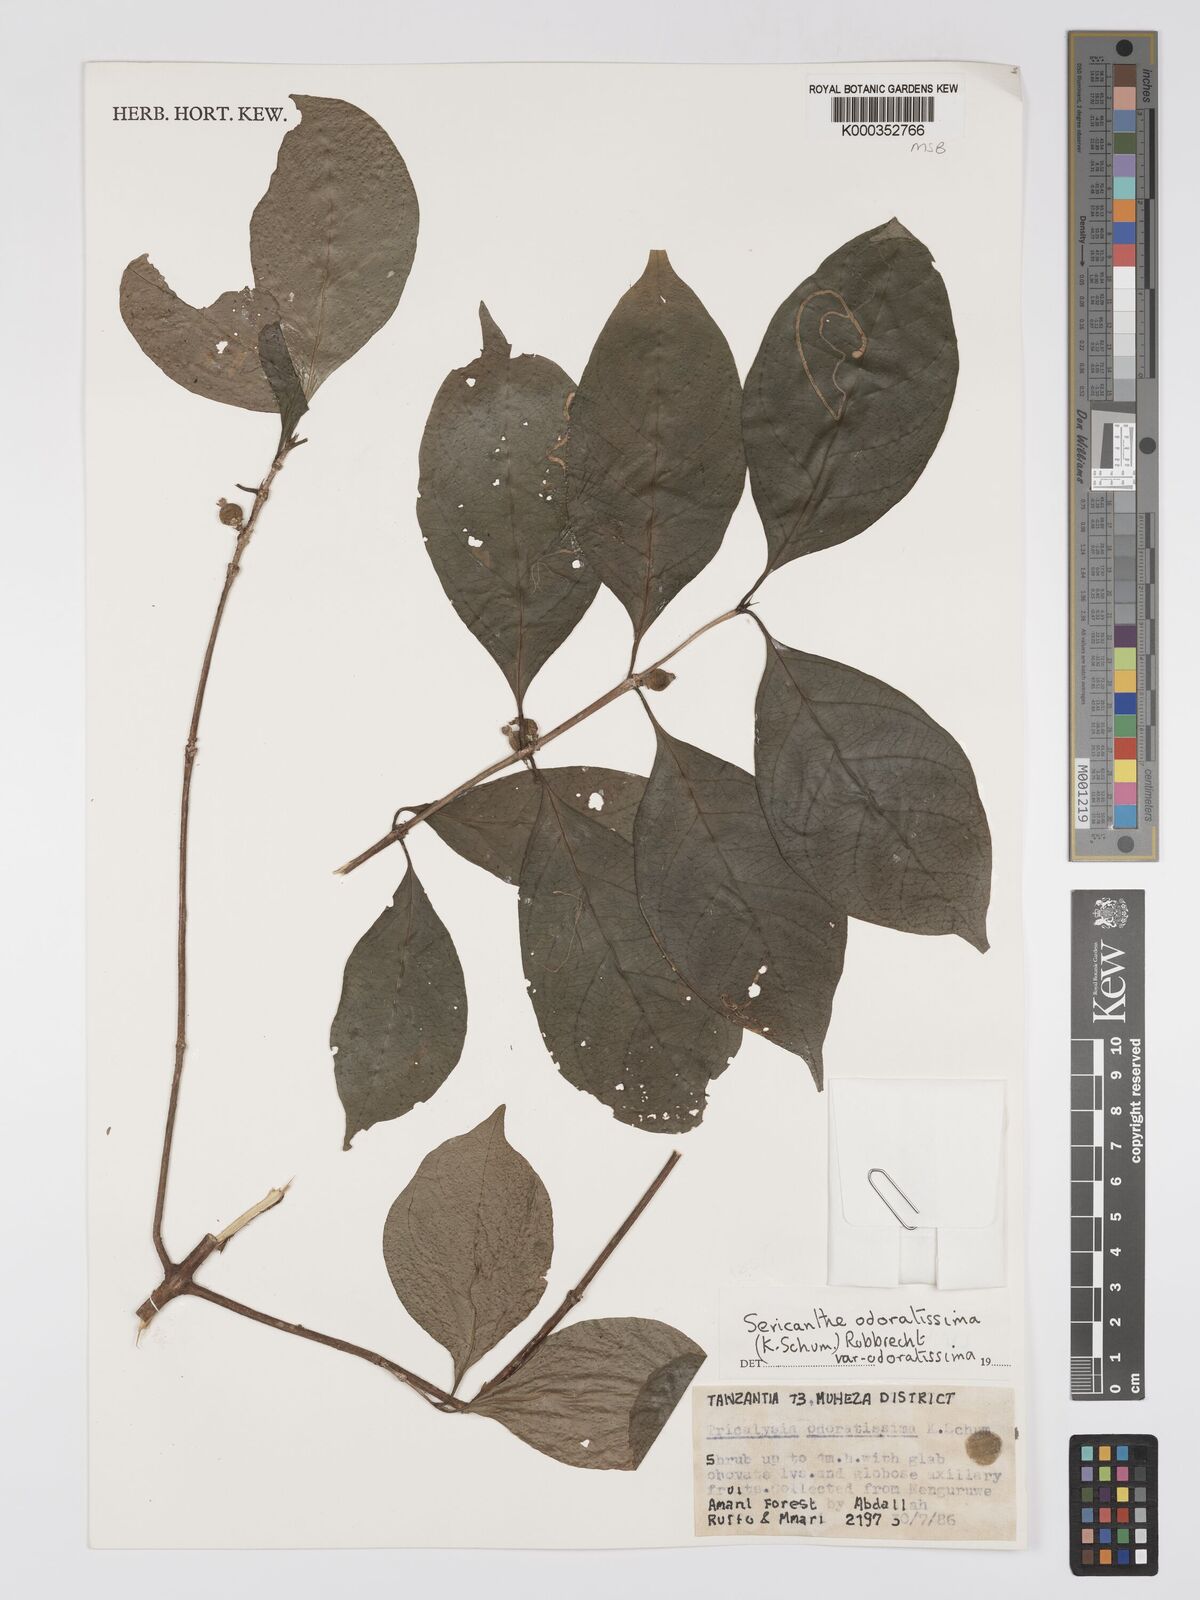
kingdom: Plantae
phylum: Tracheophyta
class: Magnoliopsida
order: Gentianales
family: Rubiaceae
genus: Sericanthe
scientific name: Sericanthe odoratissima
